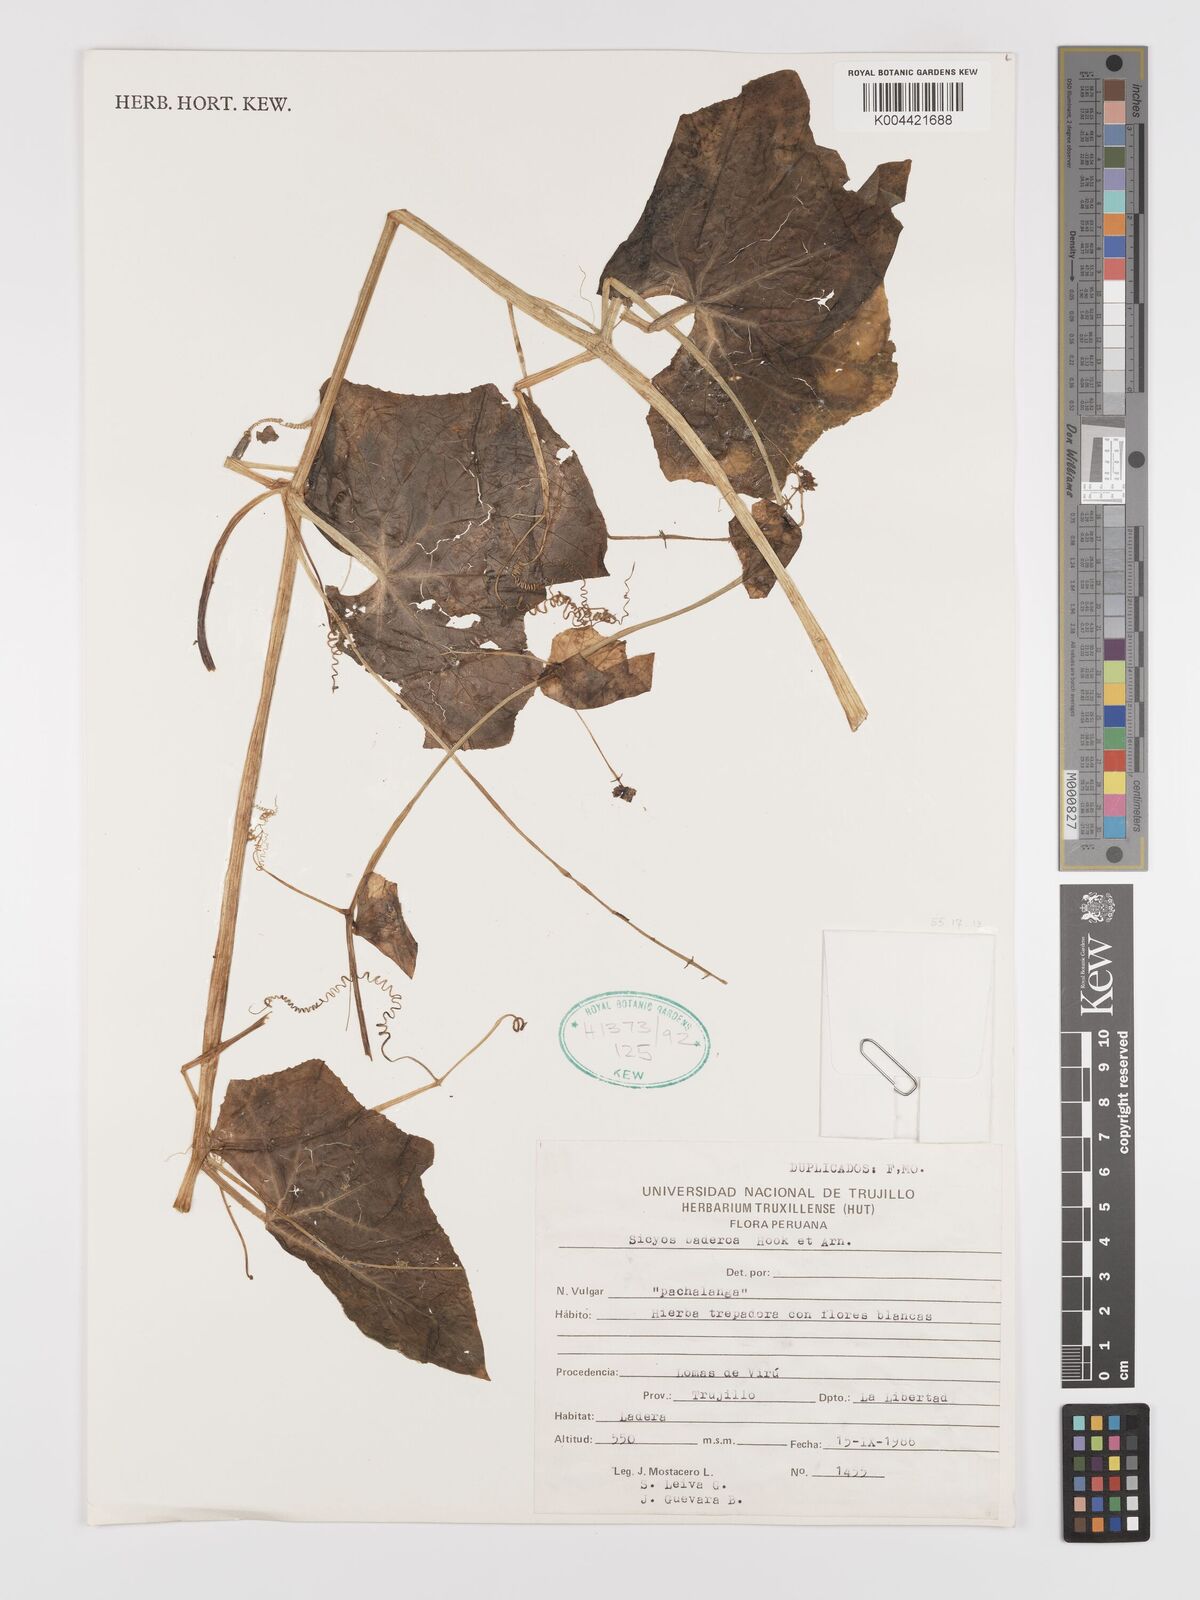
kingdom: Plantae
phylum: Tracheophyta
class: Magnoliopsida
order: Cucurbitales
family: Cucurbitaceae
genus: Sicyos
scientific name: Sicyos baderoa
